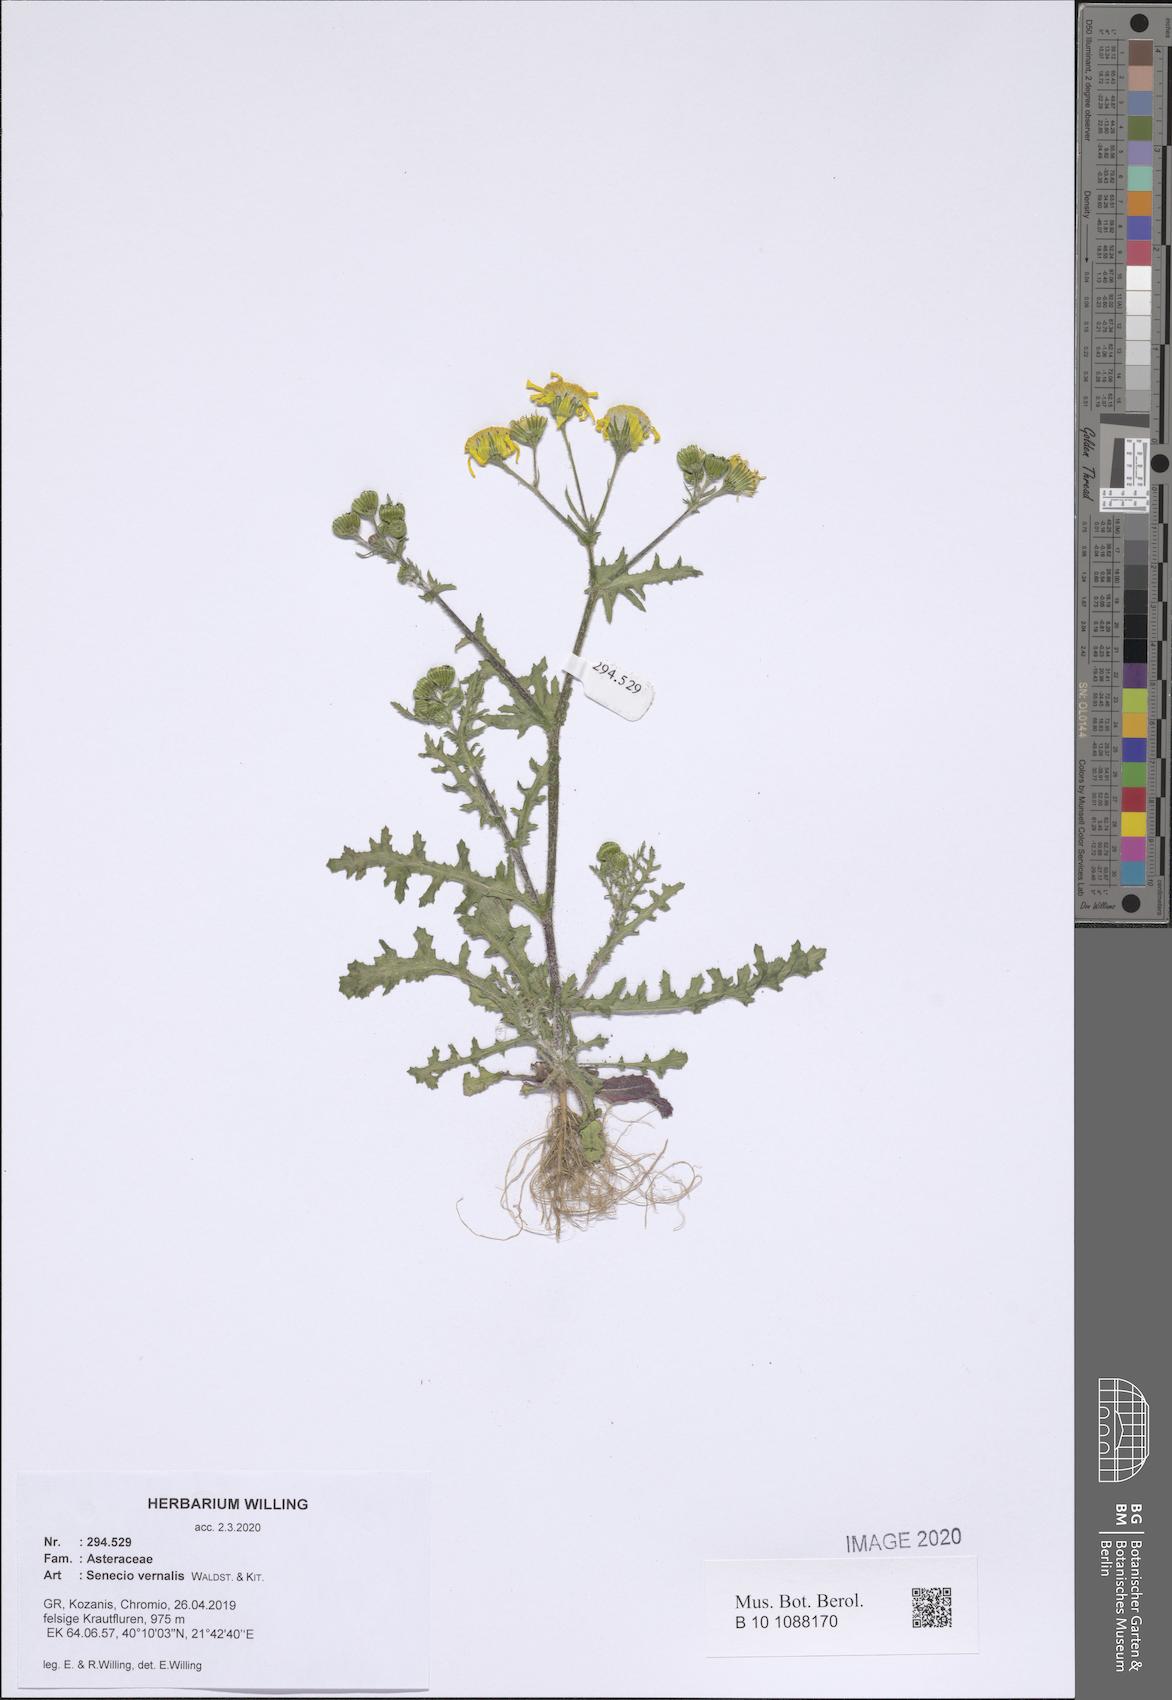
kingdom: Plantae
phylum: Tracheophyta
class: Magnoliopsida
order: Asterales
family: Asteraceae
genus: Senecio
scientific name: Senecio vernalis
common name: Eastern groundsel
